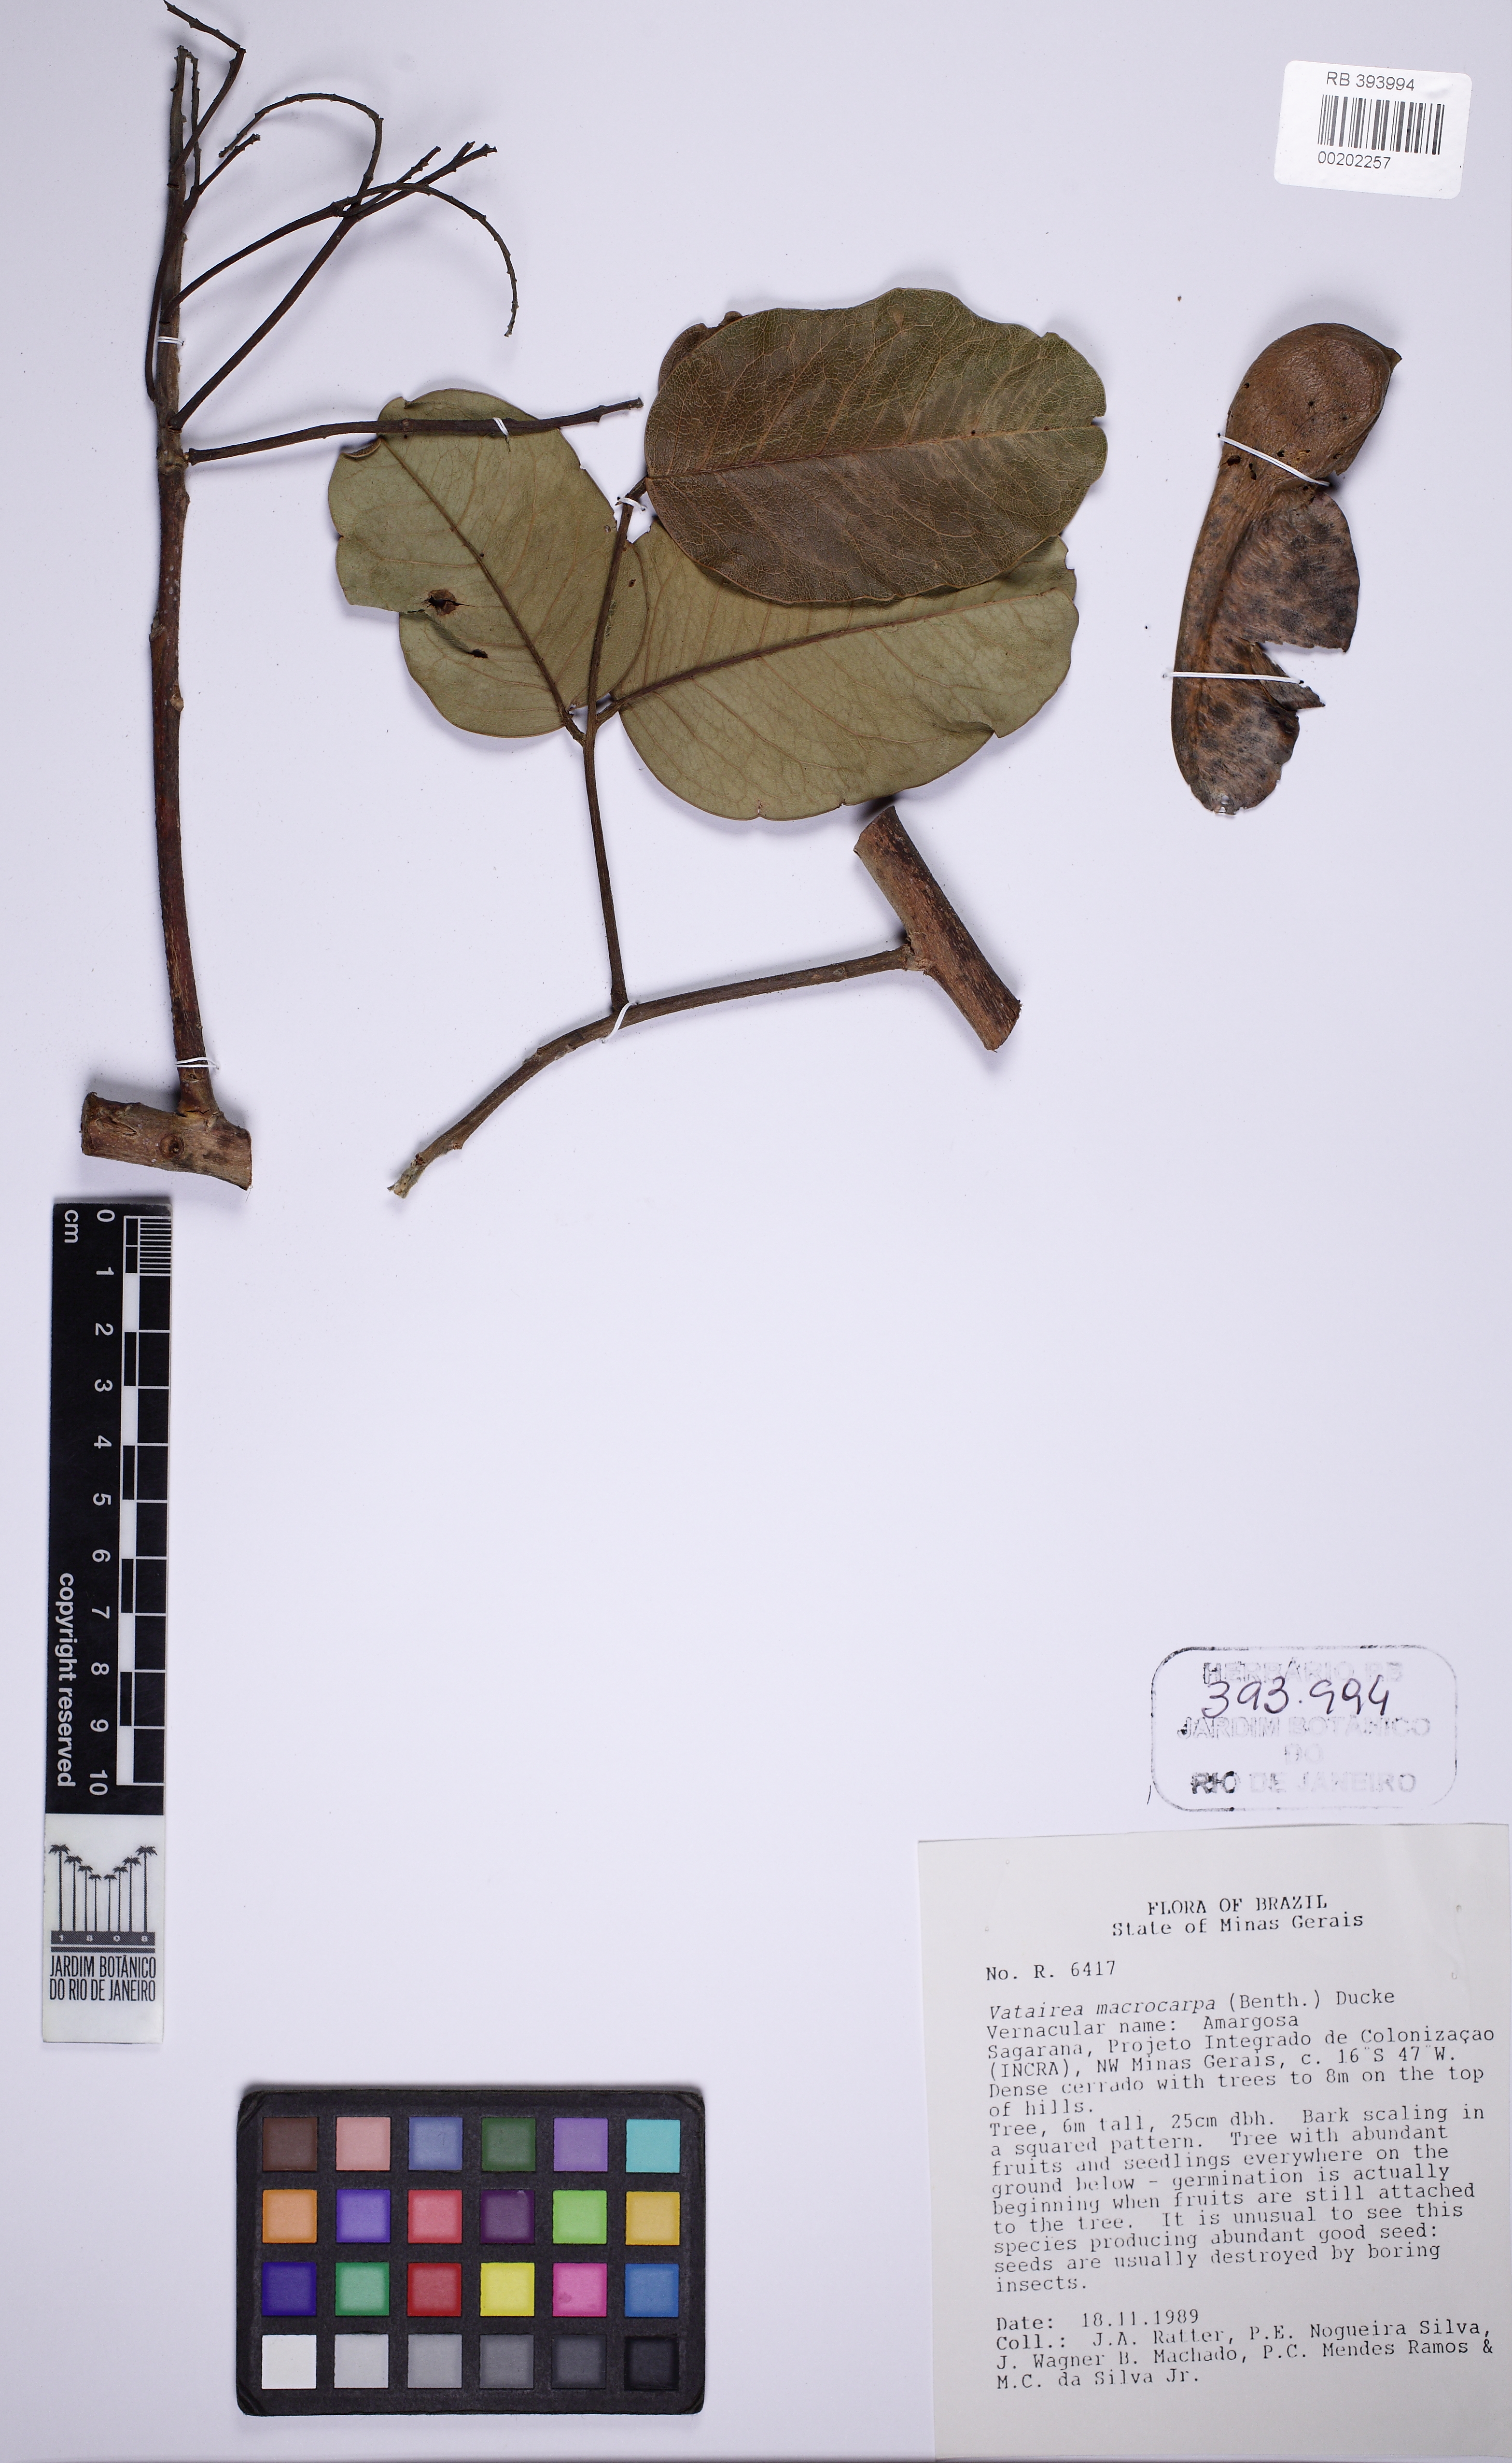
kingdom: Plantae
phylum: Tracheophyta
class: Magnoliopsida
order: Fabales
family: Fabaceae
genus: Vatairea
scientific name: Vatairea macrocarpa
